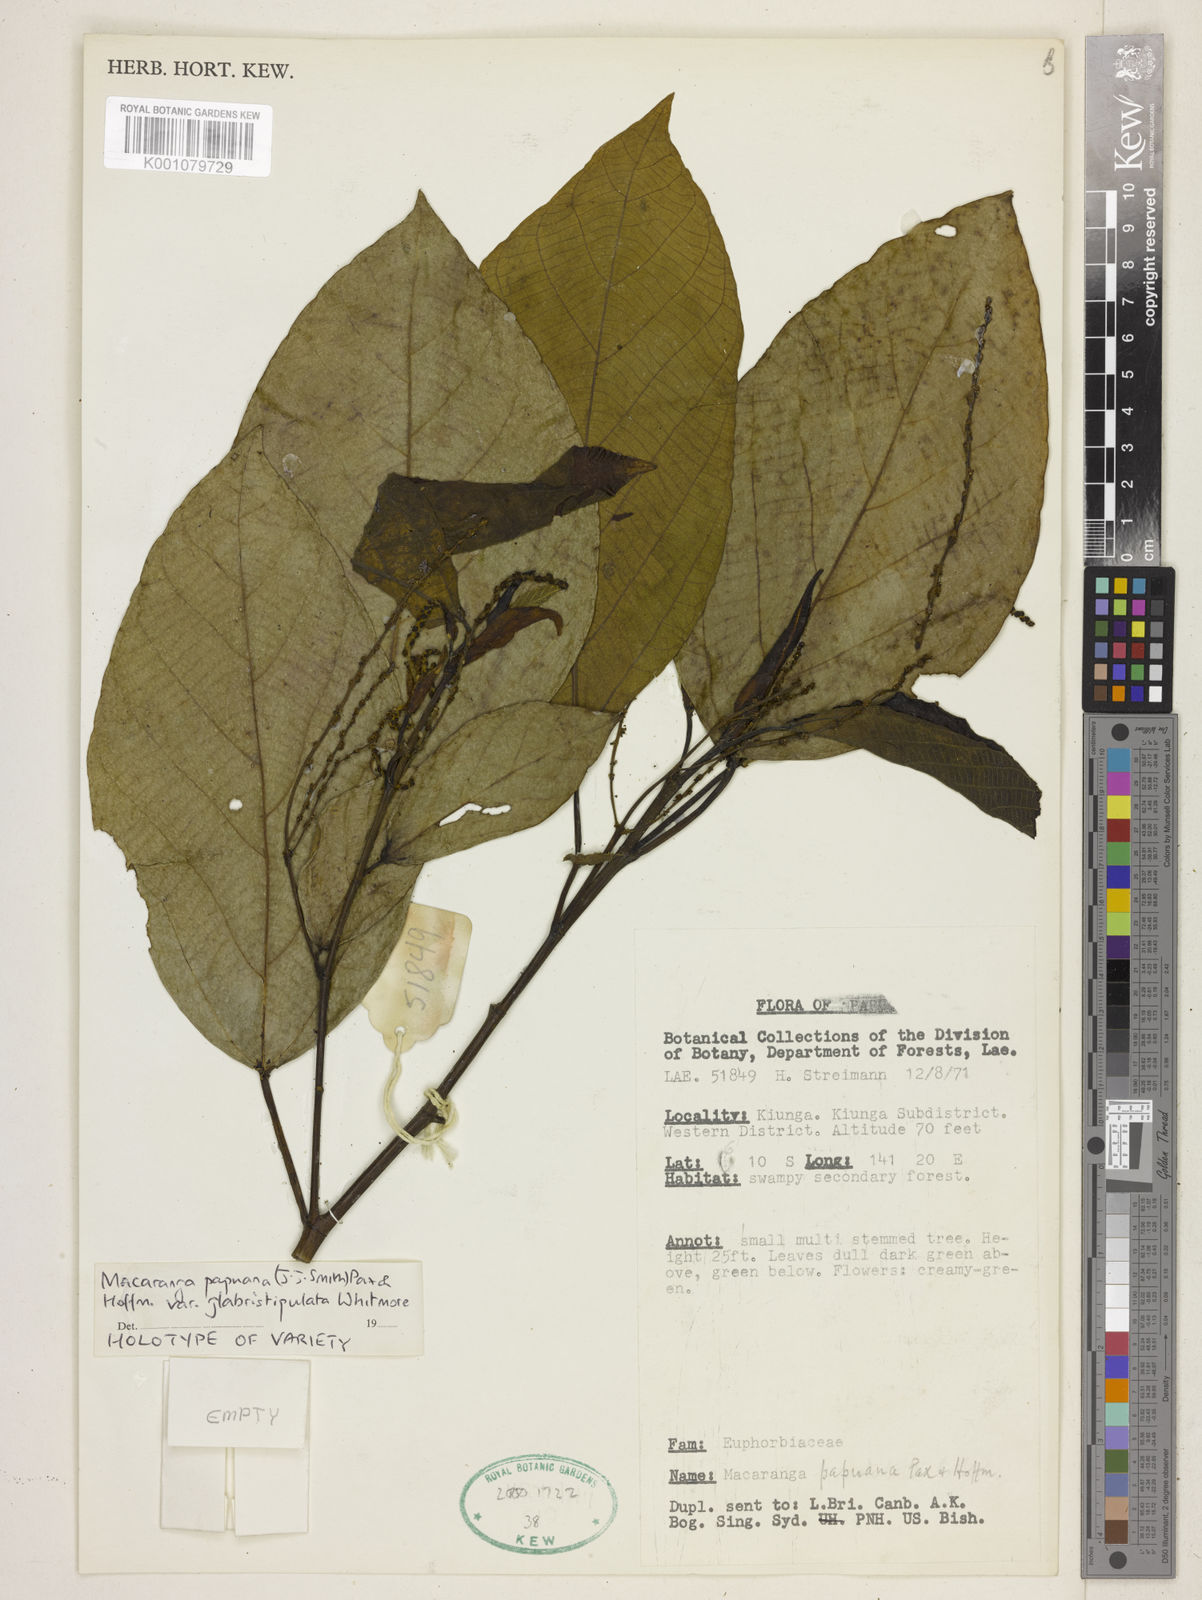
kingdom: Plantae
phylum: Tracheophyta
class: Magnoliopsida
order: Malpighiales
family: Euphorbiaceae
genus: Macaranga
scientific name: Macaranga papuana
